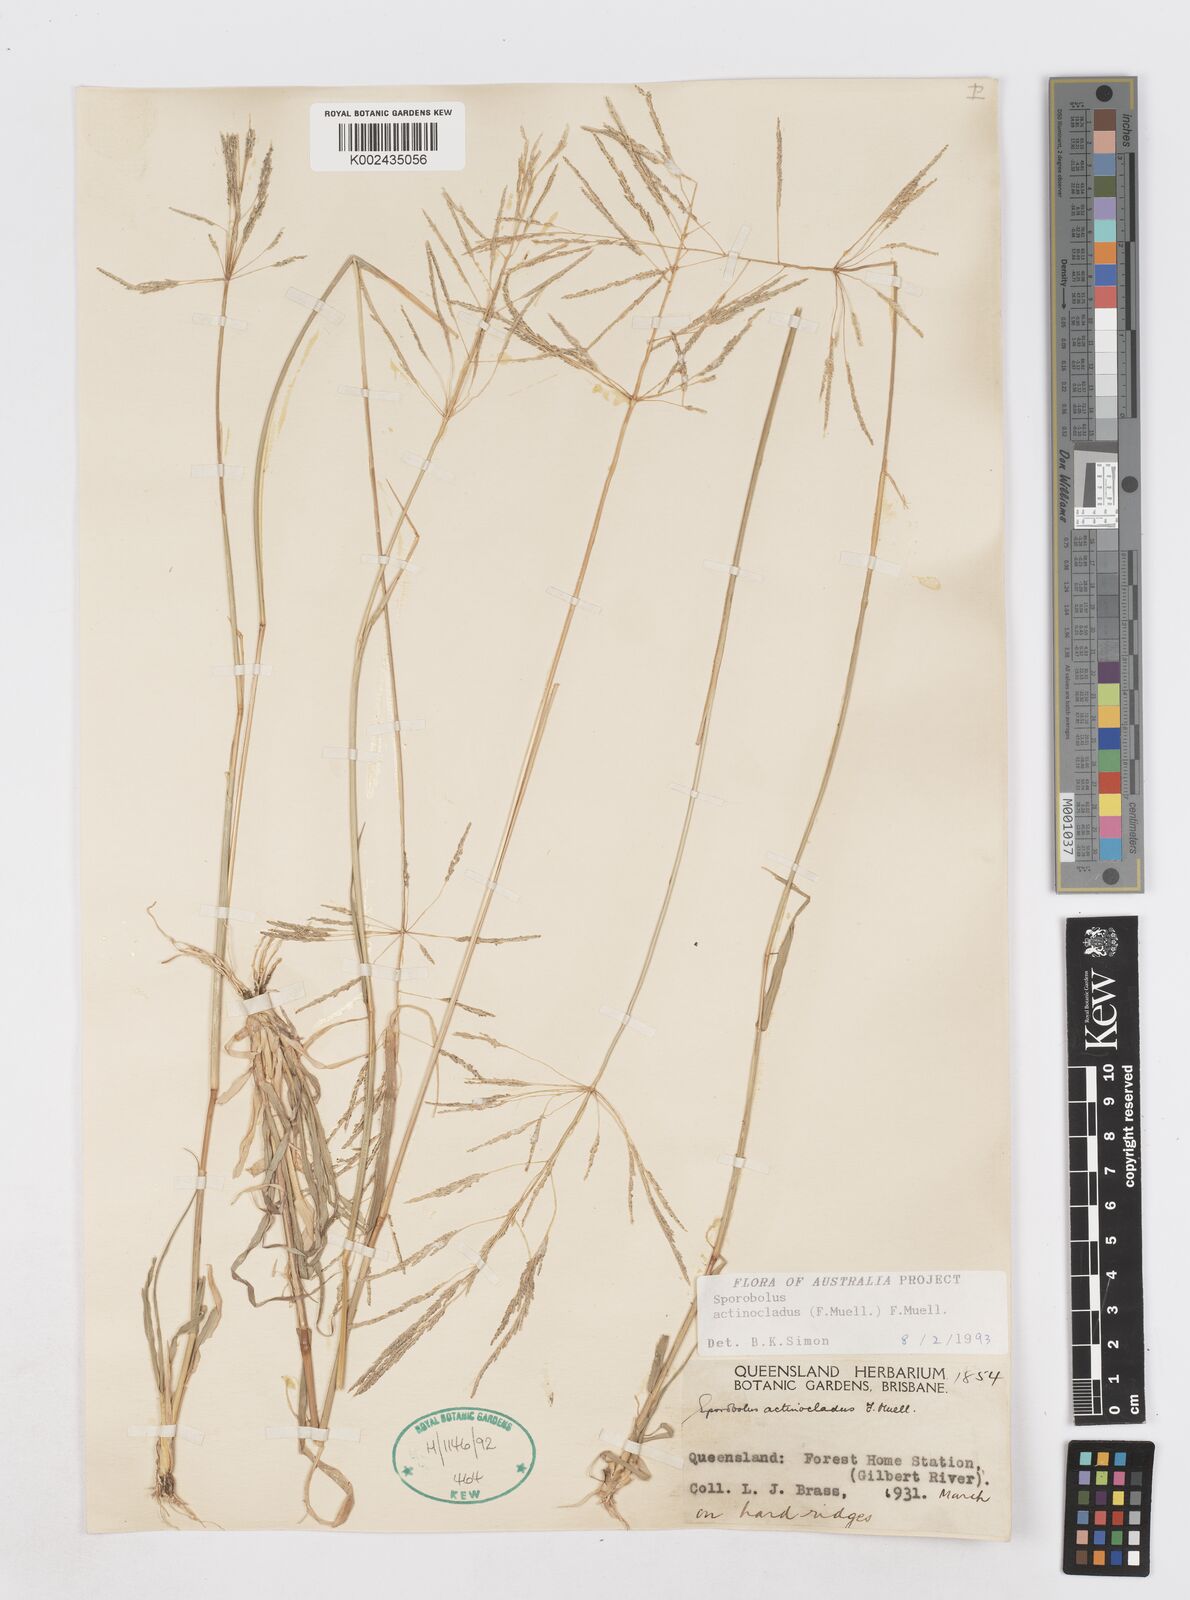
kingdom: Plantae
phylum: Tracheophyta
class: Liliopsida
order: Poales
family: Poaceae
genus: Sporobolus
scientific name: Sporobolus actinocladus
